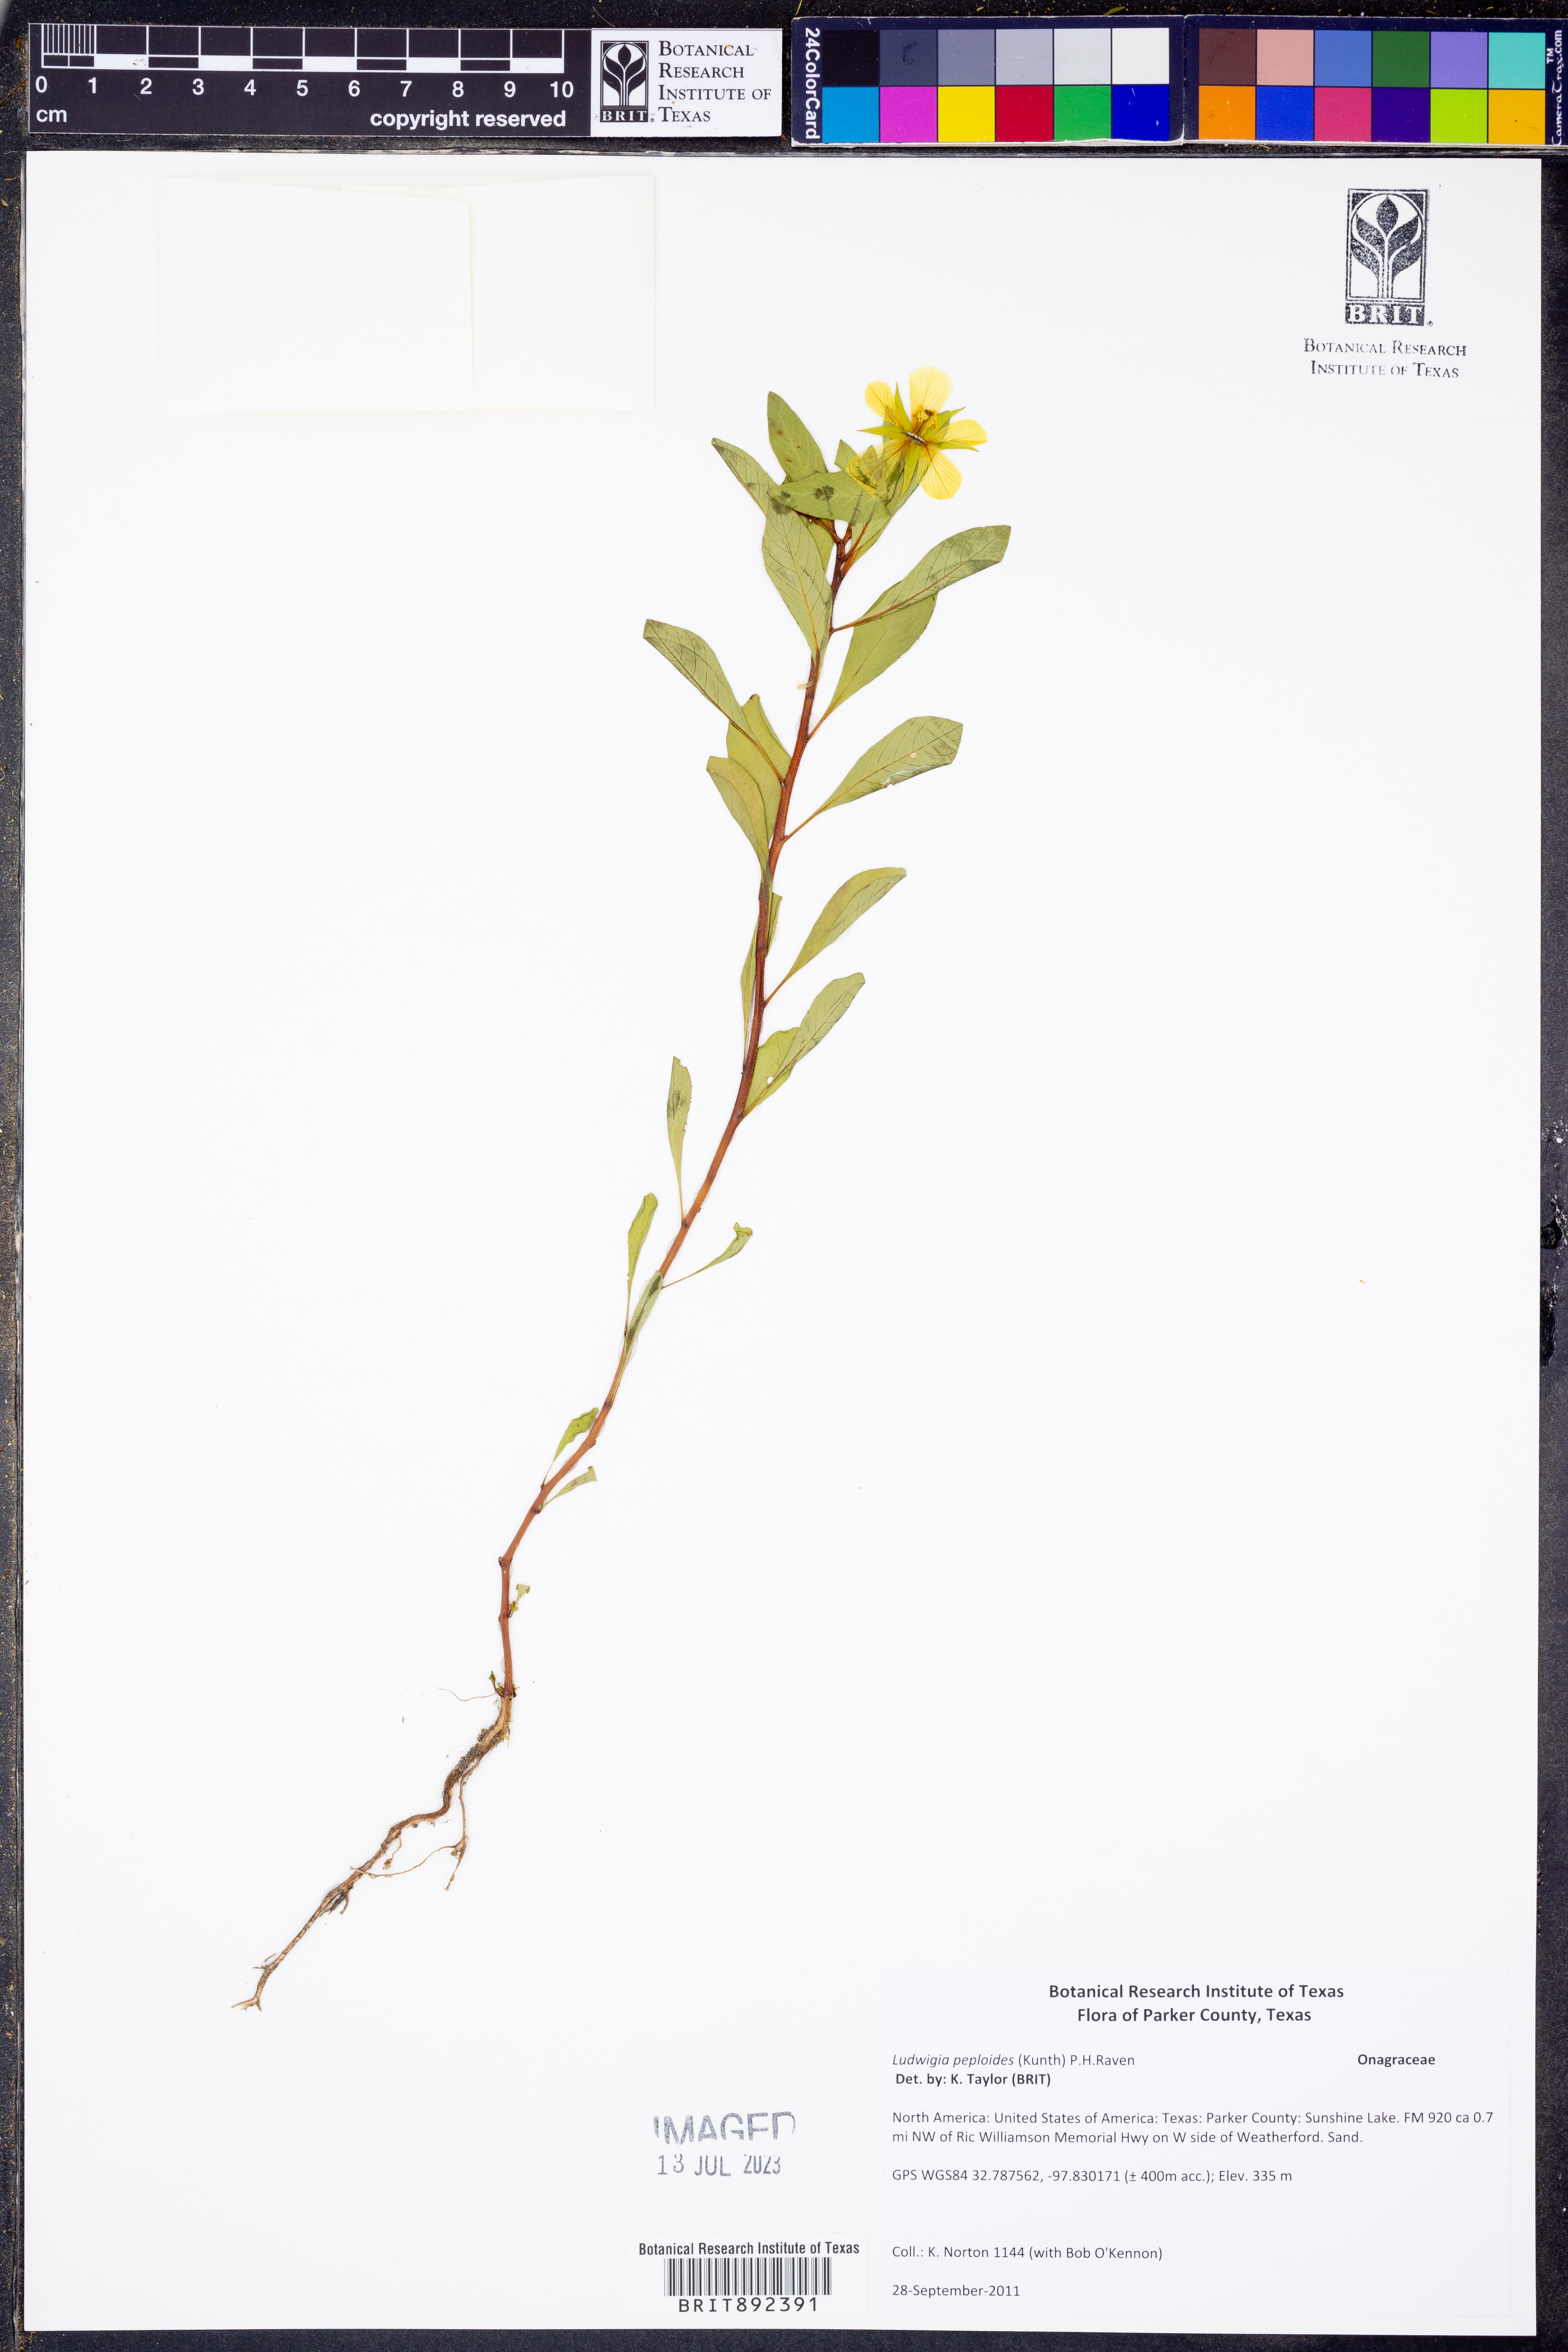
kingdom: Plantae
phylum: Tracheophyta
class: Magnoliopsida
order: Myrtales
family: Onagraceae
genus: Ludwigia
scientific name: Ludwigia peploides
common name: Floating primrose-willow
